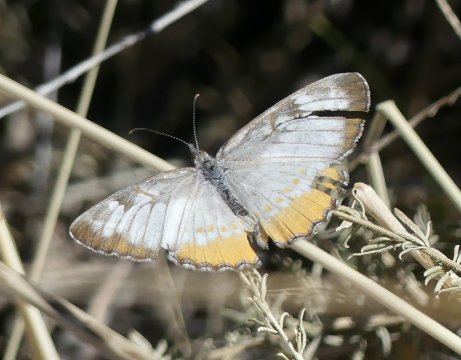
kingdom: Animalia
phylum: Arthropoda
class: Insecta
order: Lepidoptera
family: Nymphalidae
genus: Mestra
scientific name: Mestra amymone
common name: Common Mestra
